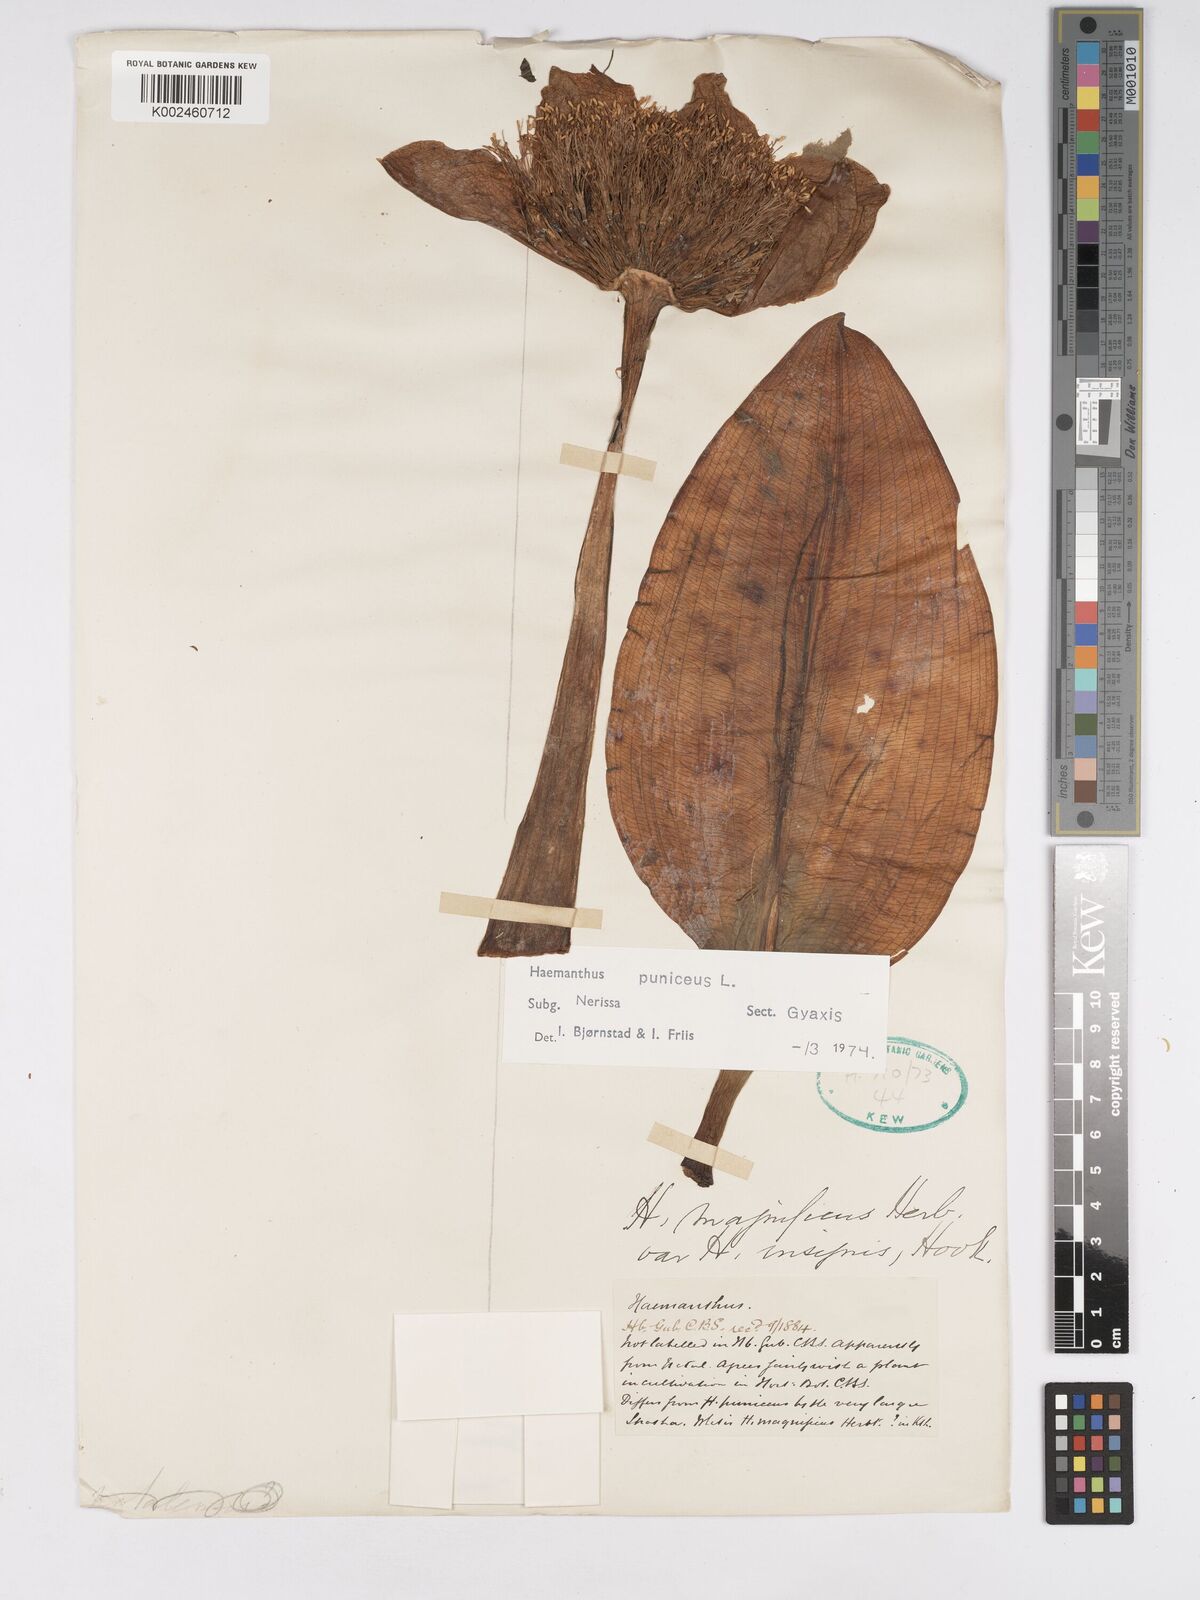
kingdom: Plantae
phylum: Tracheophyta
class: Liliopsida
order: Asparagales
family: Amaryllidaceae
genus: Scadoxus
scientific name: Scadoxus puniceus
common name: Royal-paintbrush
